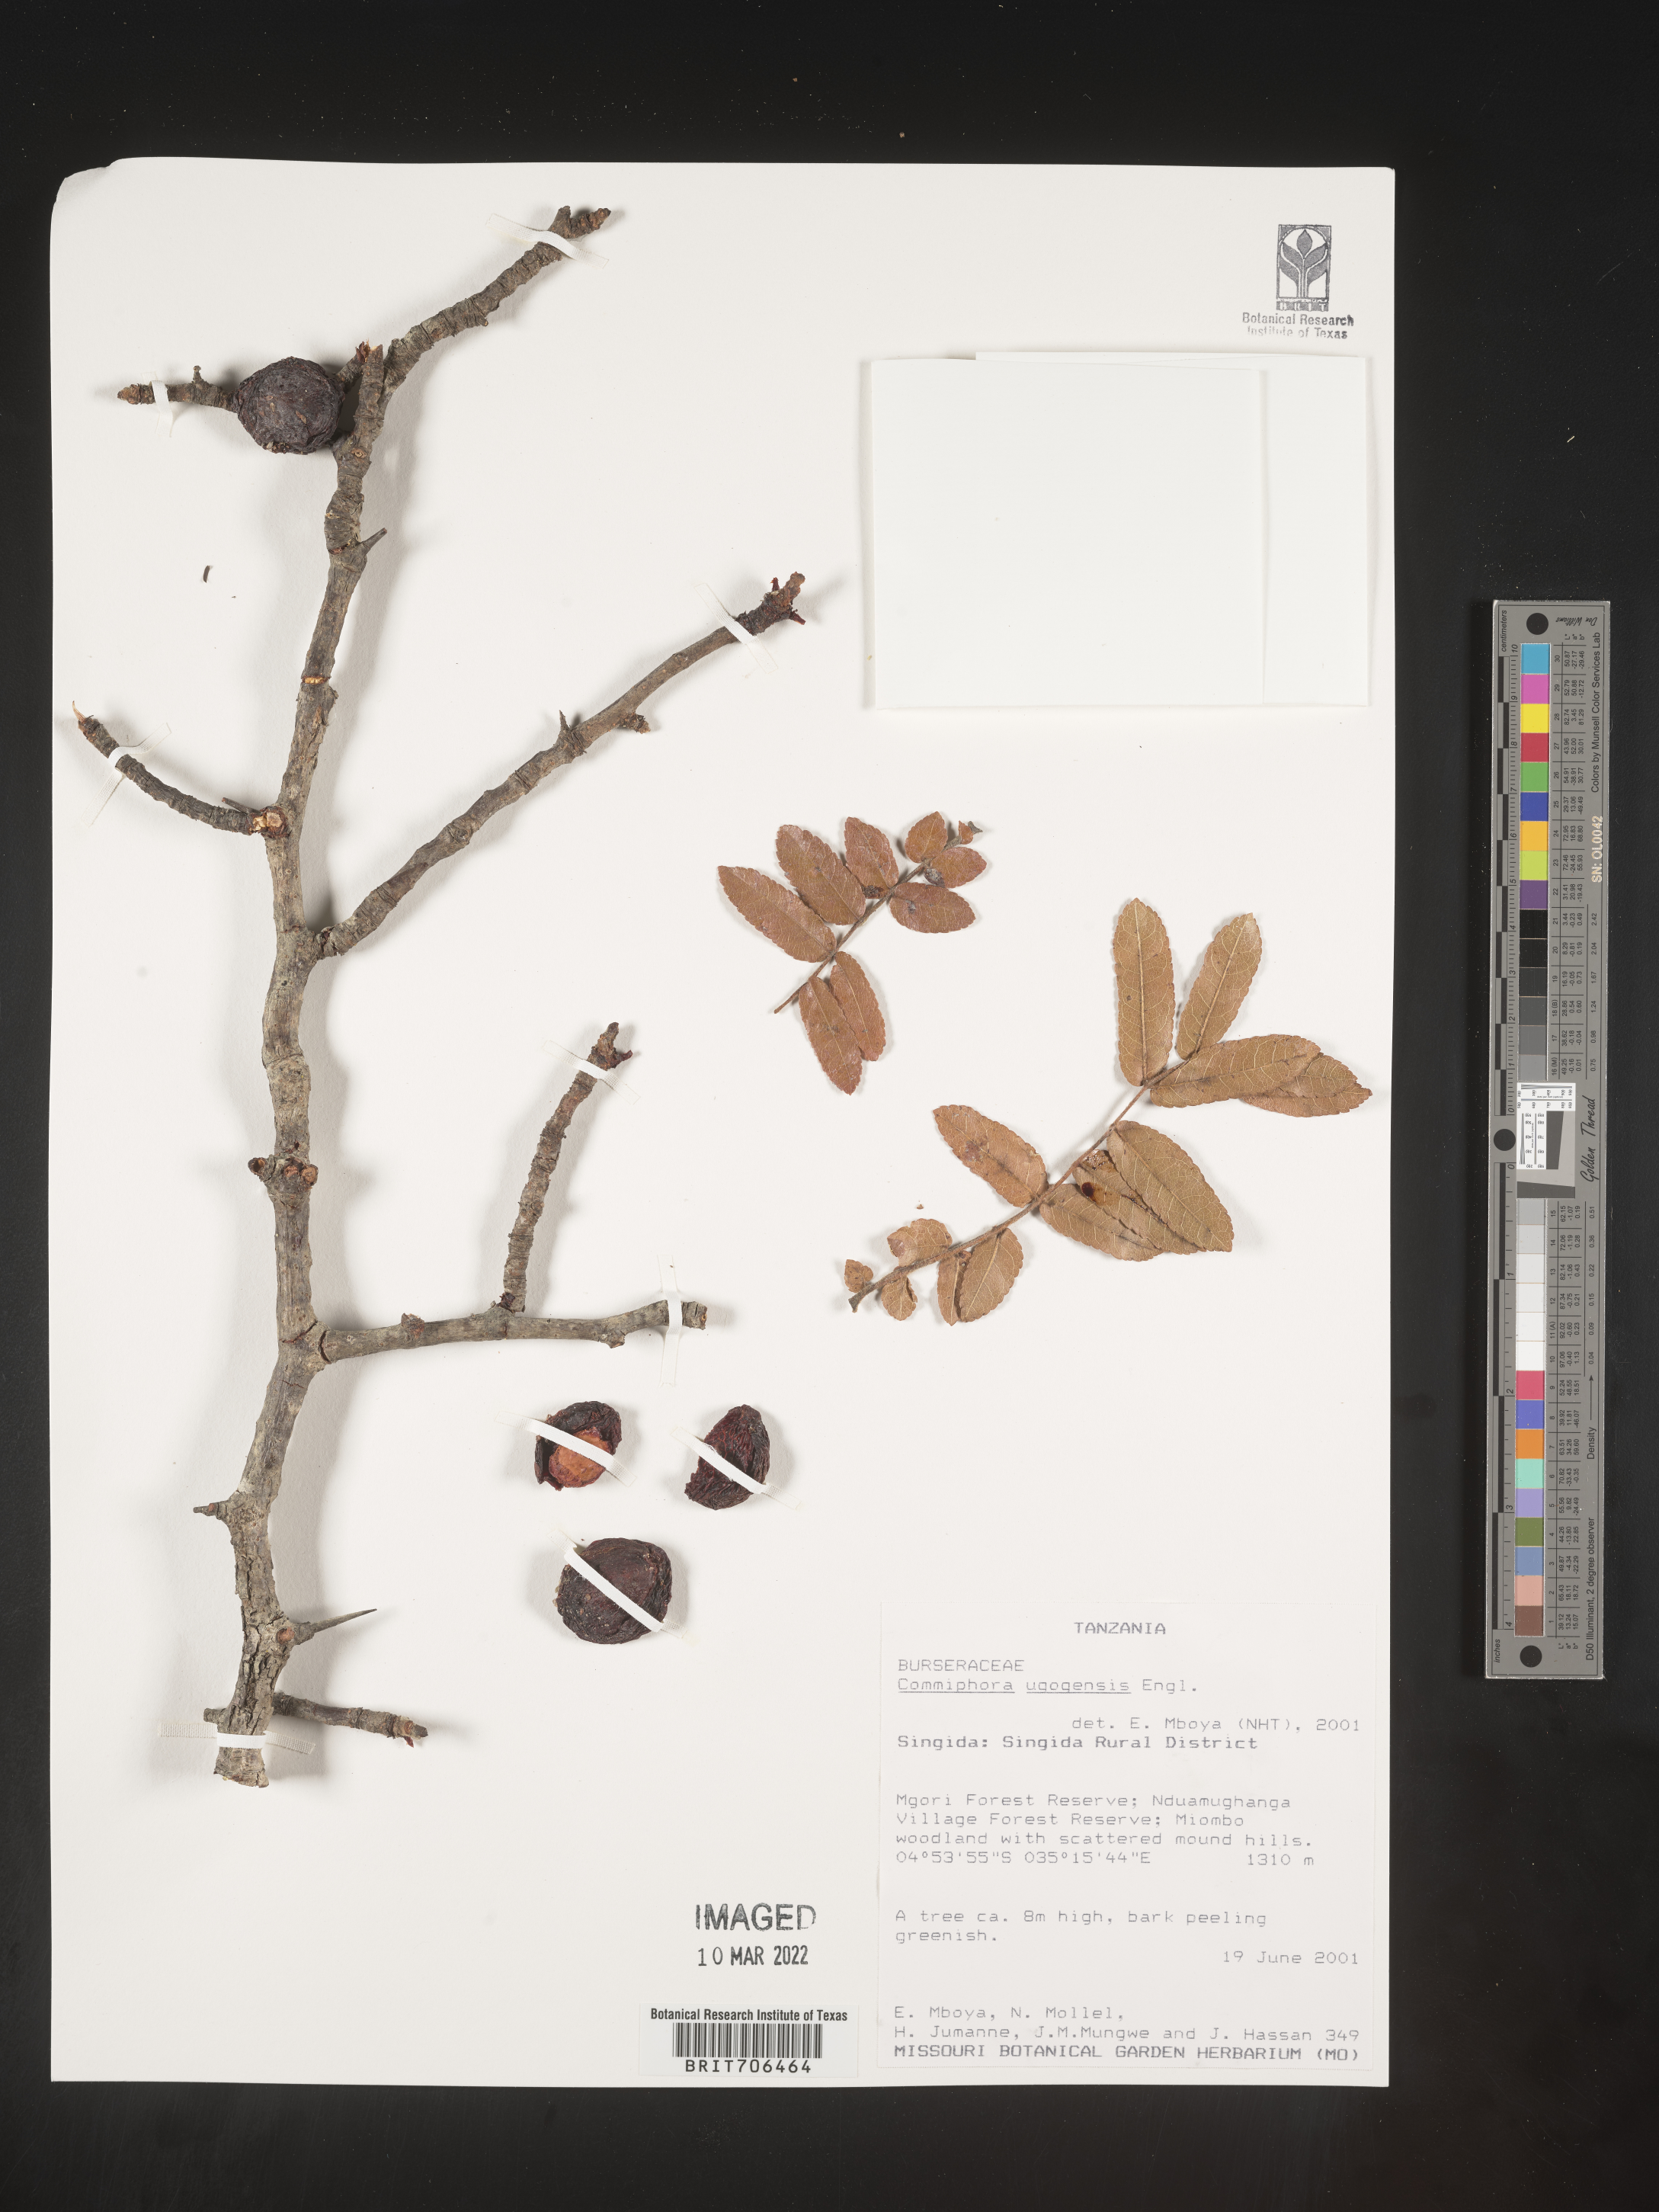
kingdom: Plantae
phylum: Tracheophyta
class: Magnoliopsida
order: Sapindales
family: Burseraceae
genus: Commiphora
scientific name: Commiphora
